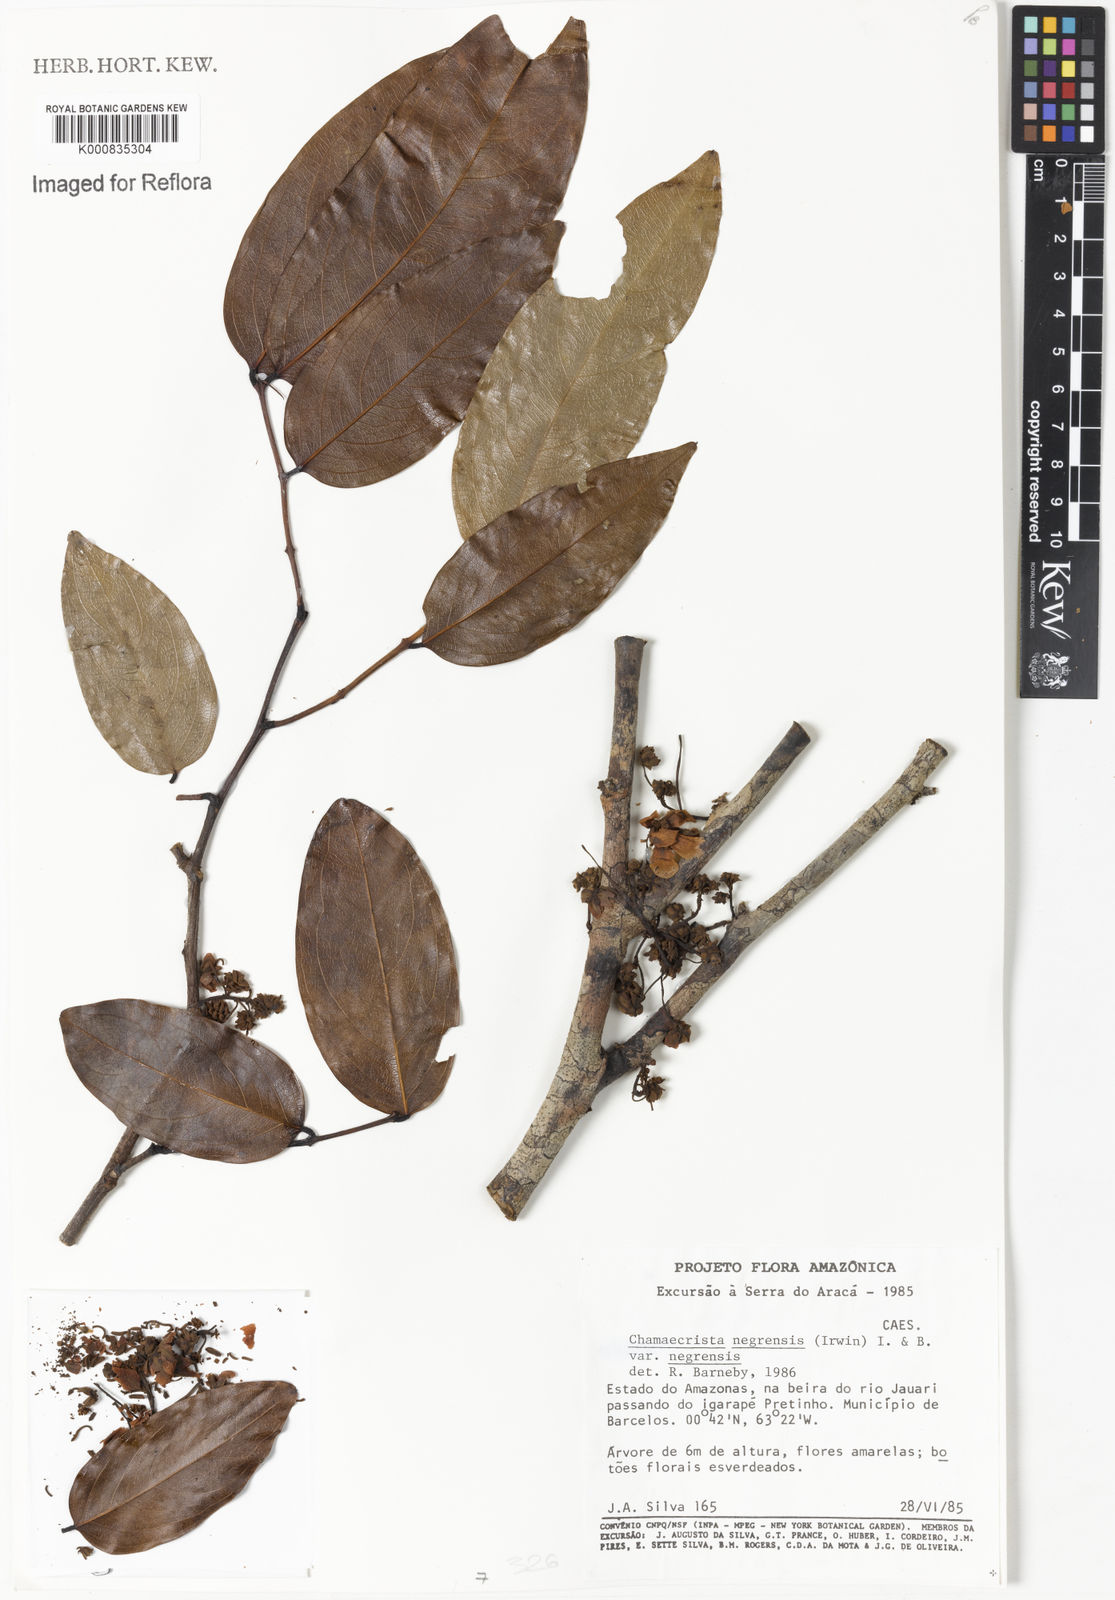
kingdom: Plantae
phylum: Tracheophyta
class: Magnoliopsida
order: Fabales
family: Fabaceae
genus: Chamaecrista
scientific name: Chamaecrista negrensis
